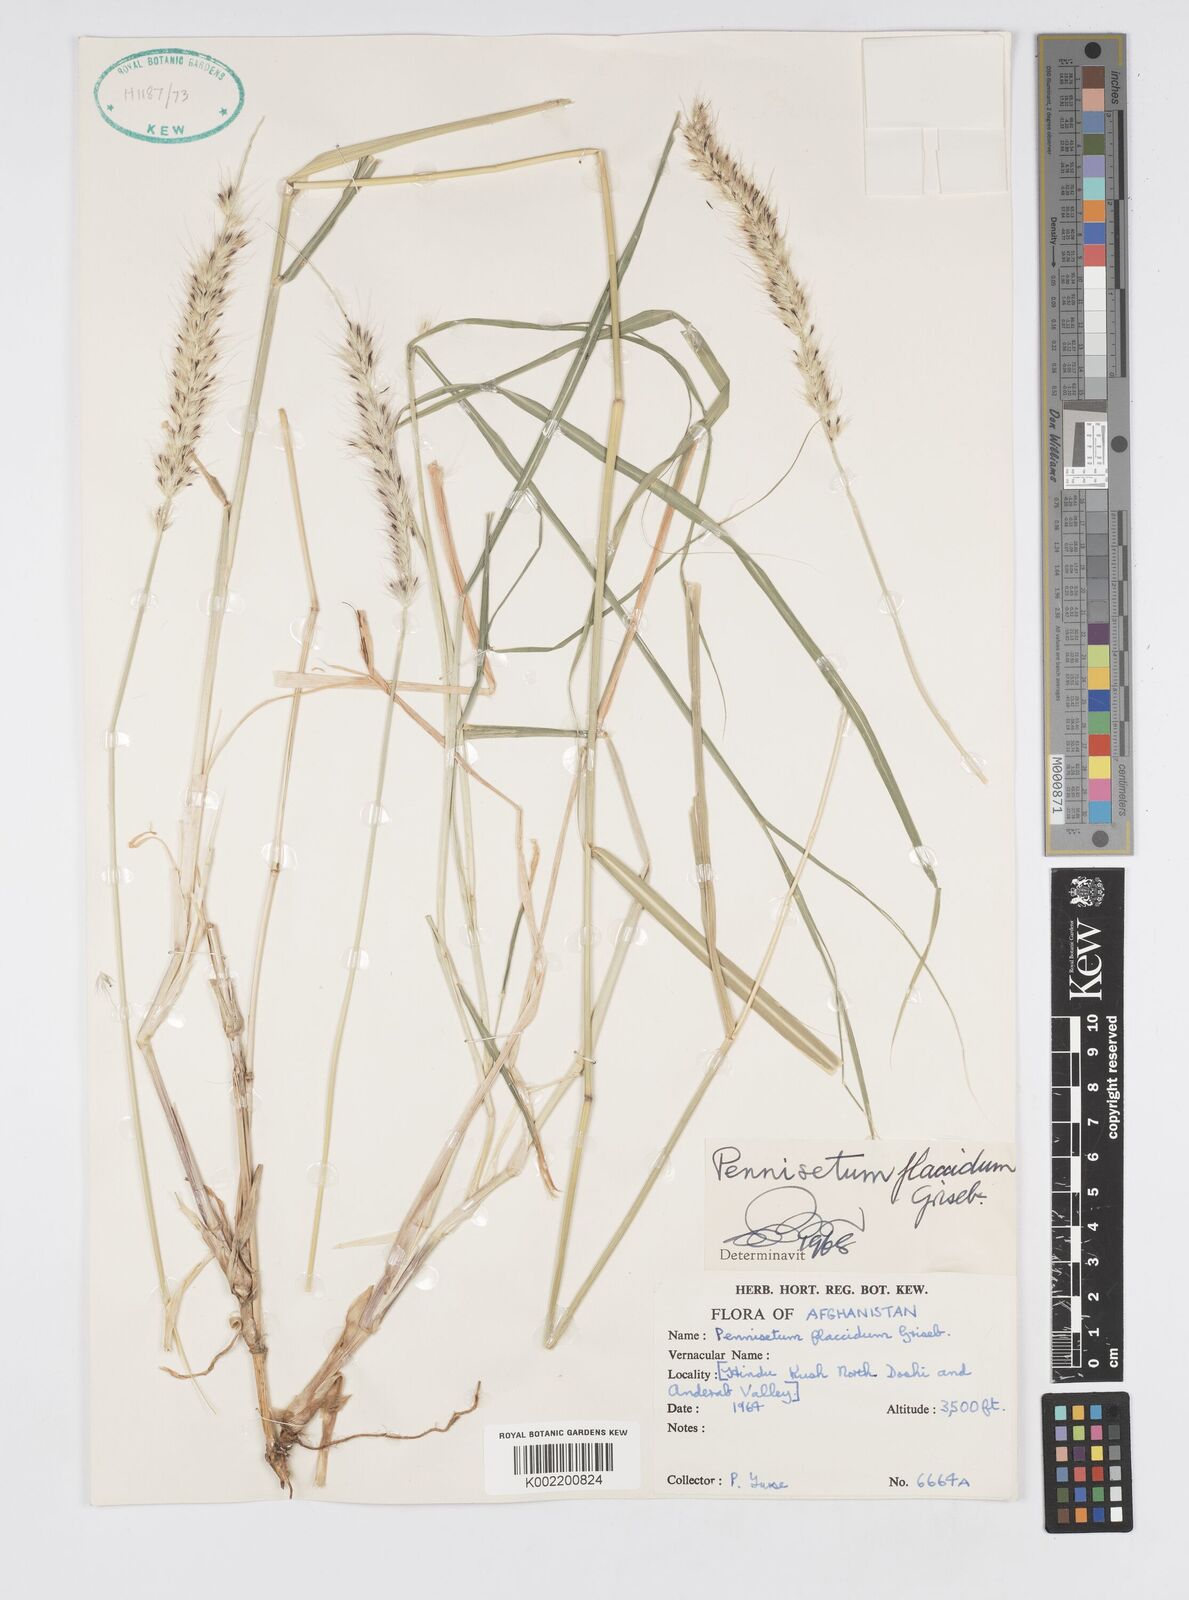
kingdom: Plantae
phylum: Tracheophyta
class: Liliopsida
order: Poales
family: Poaceae
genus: Cenchrus
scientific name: Cenchrus flaccidus
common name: Flaccid grass
